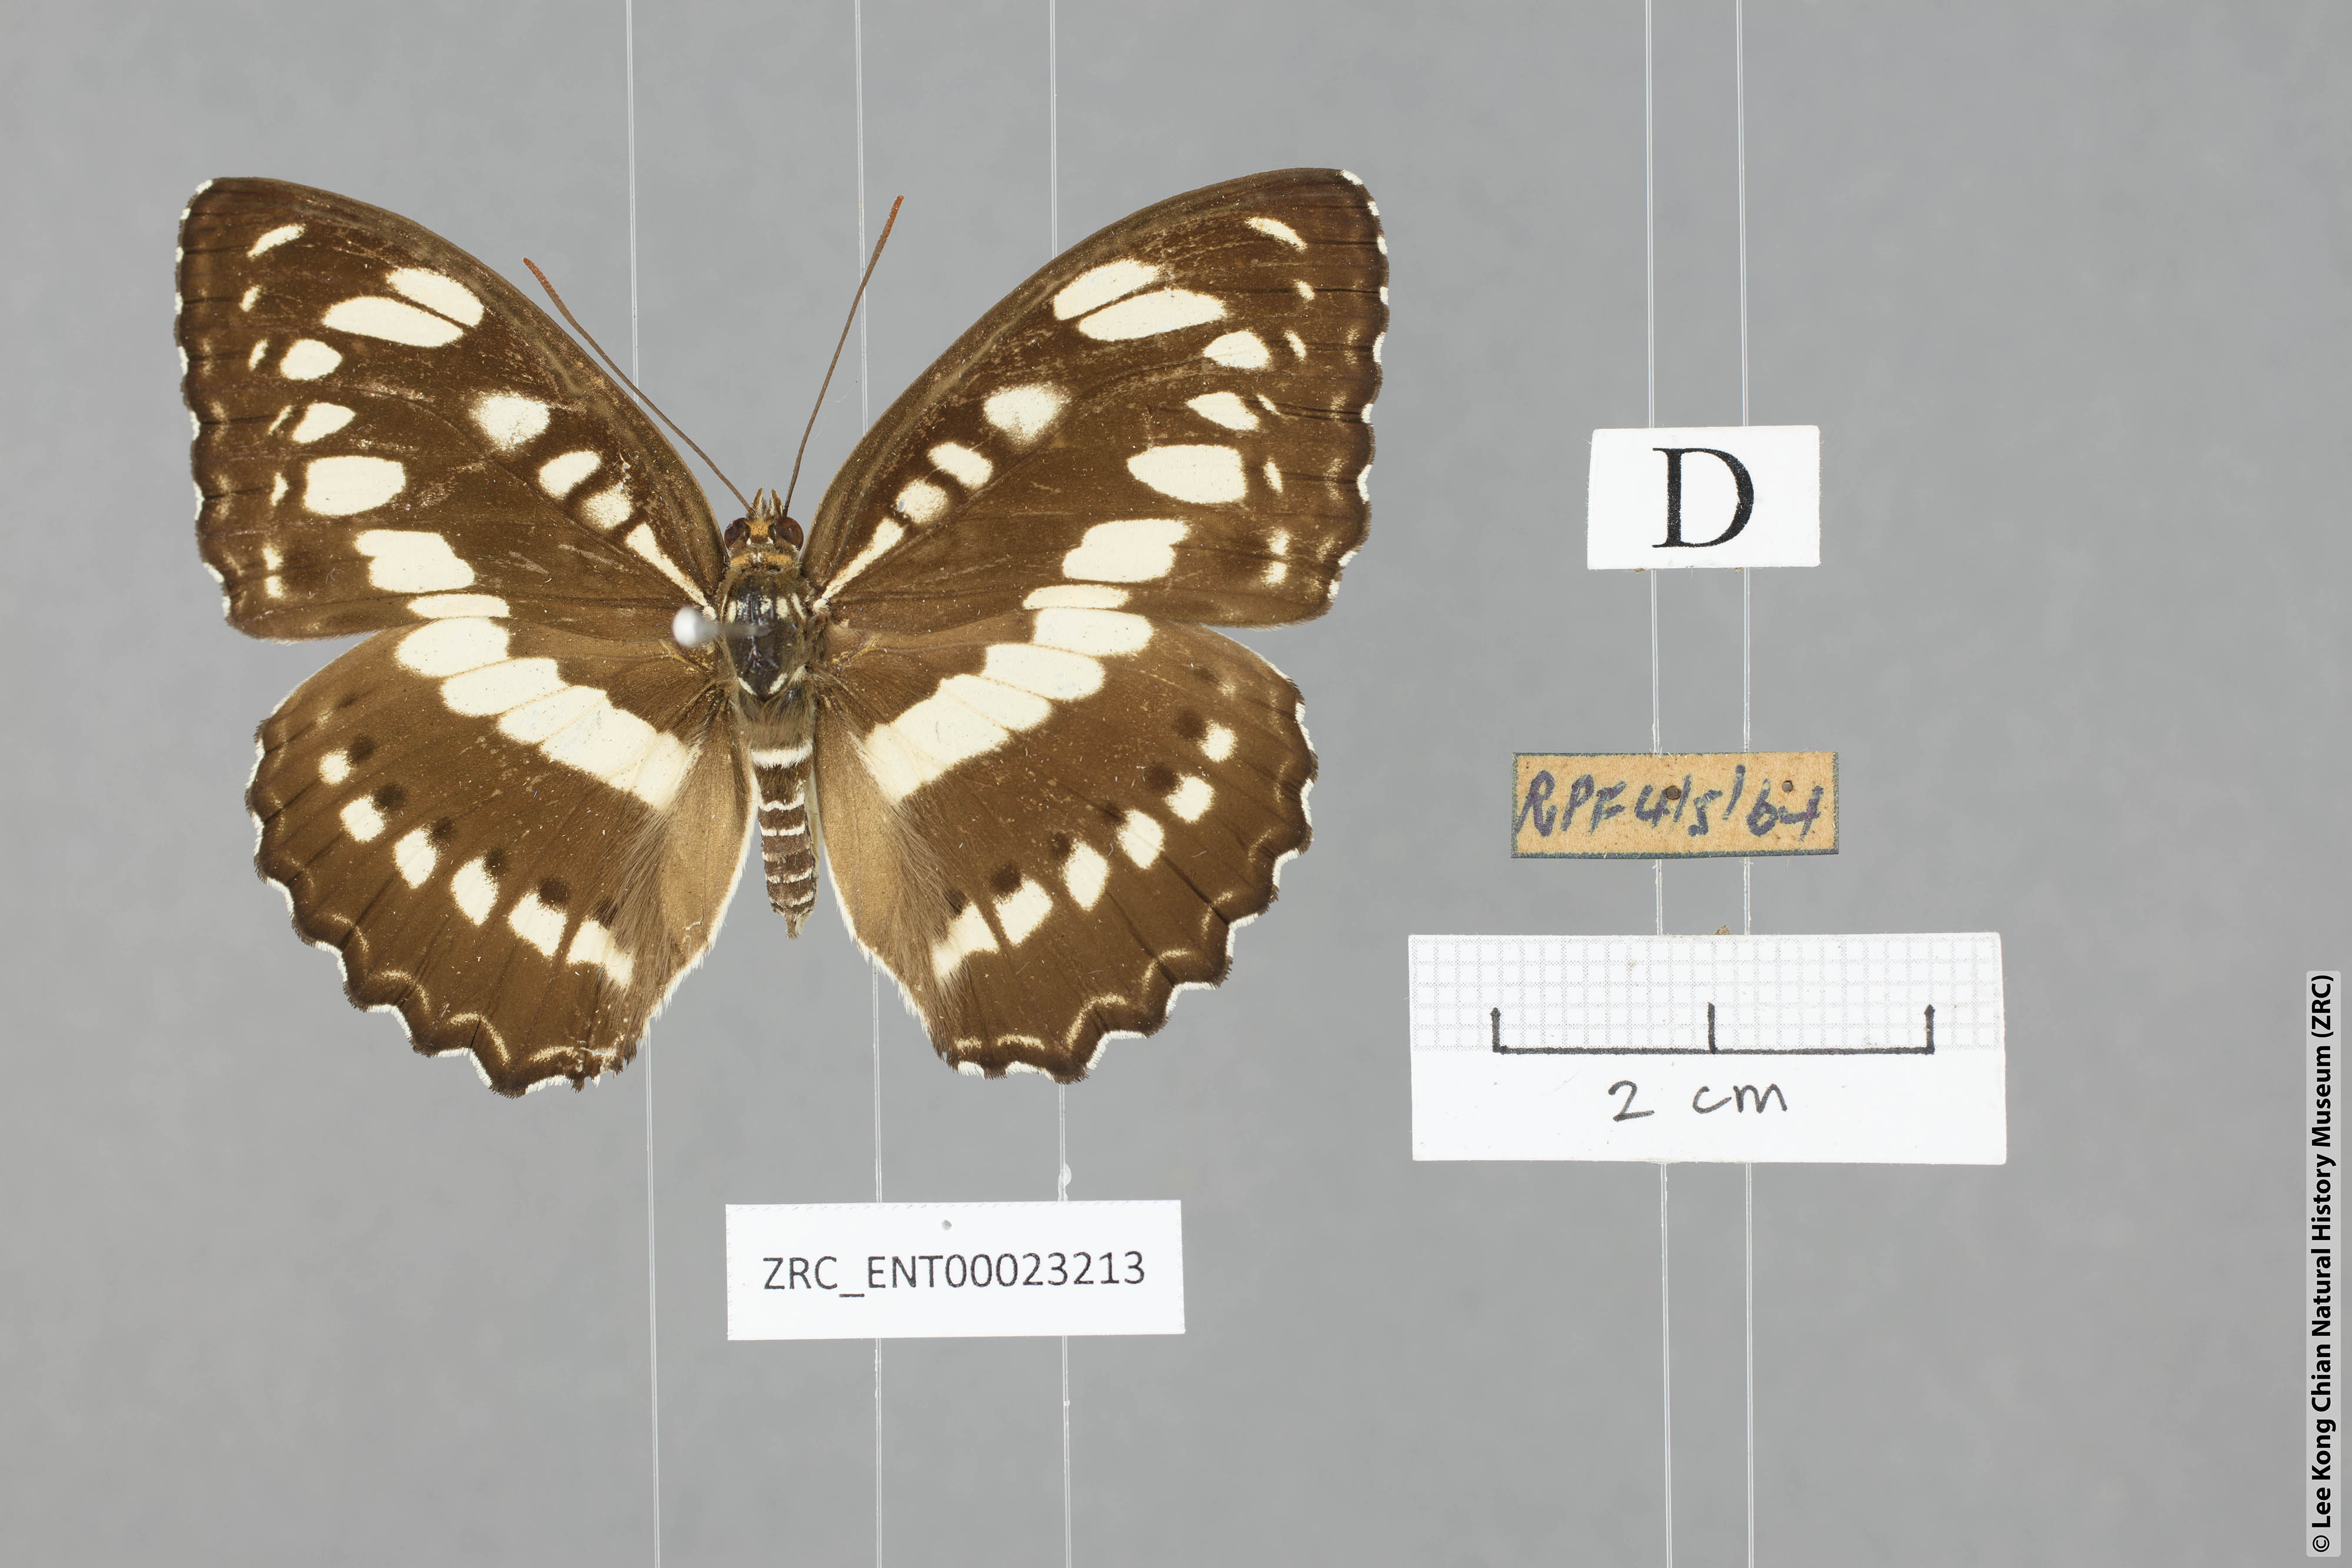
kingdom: Animalia
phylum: Arthropoda
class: Insecta
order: Lepidoptera
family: Nymphalidae
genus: Parathyma
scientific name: Parathyma perius
